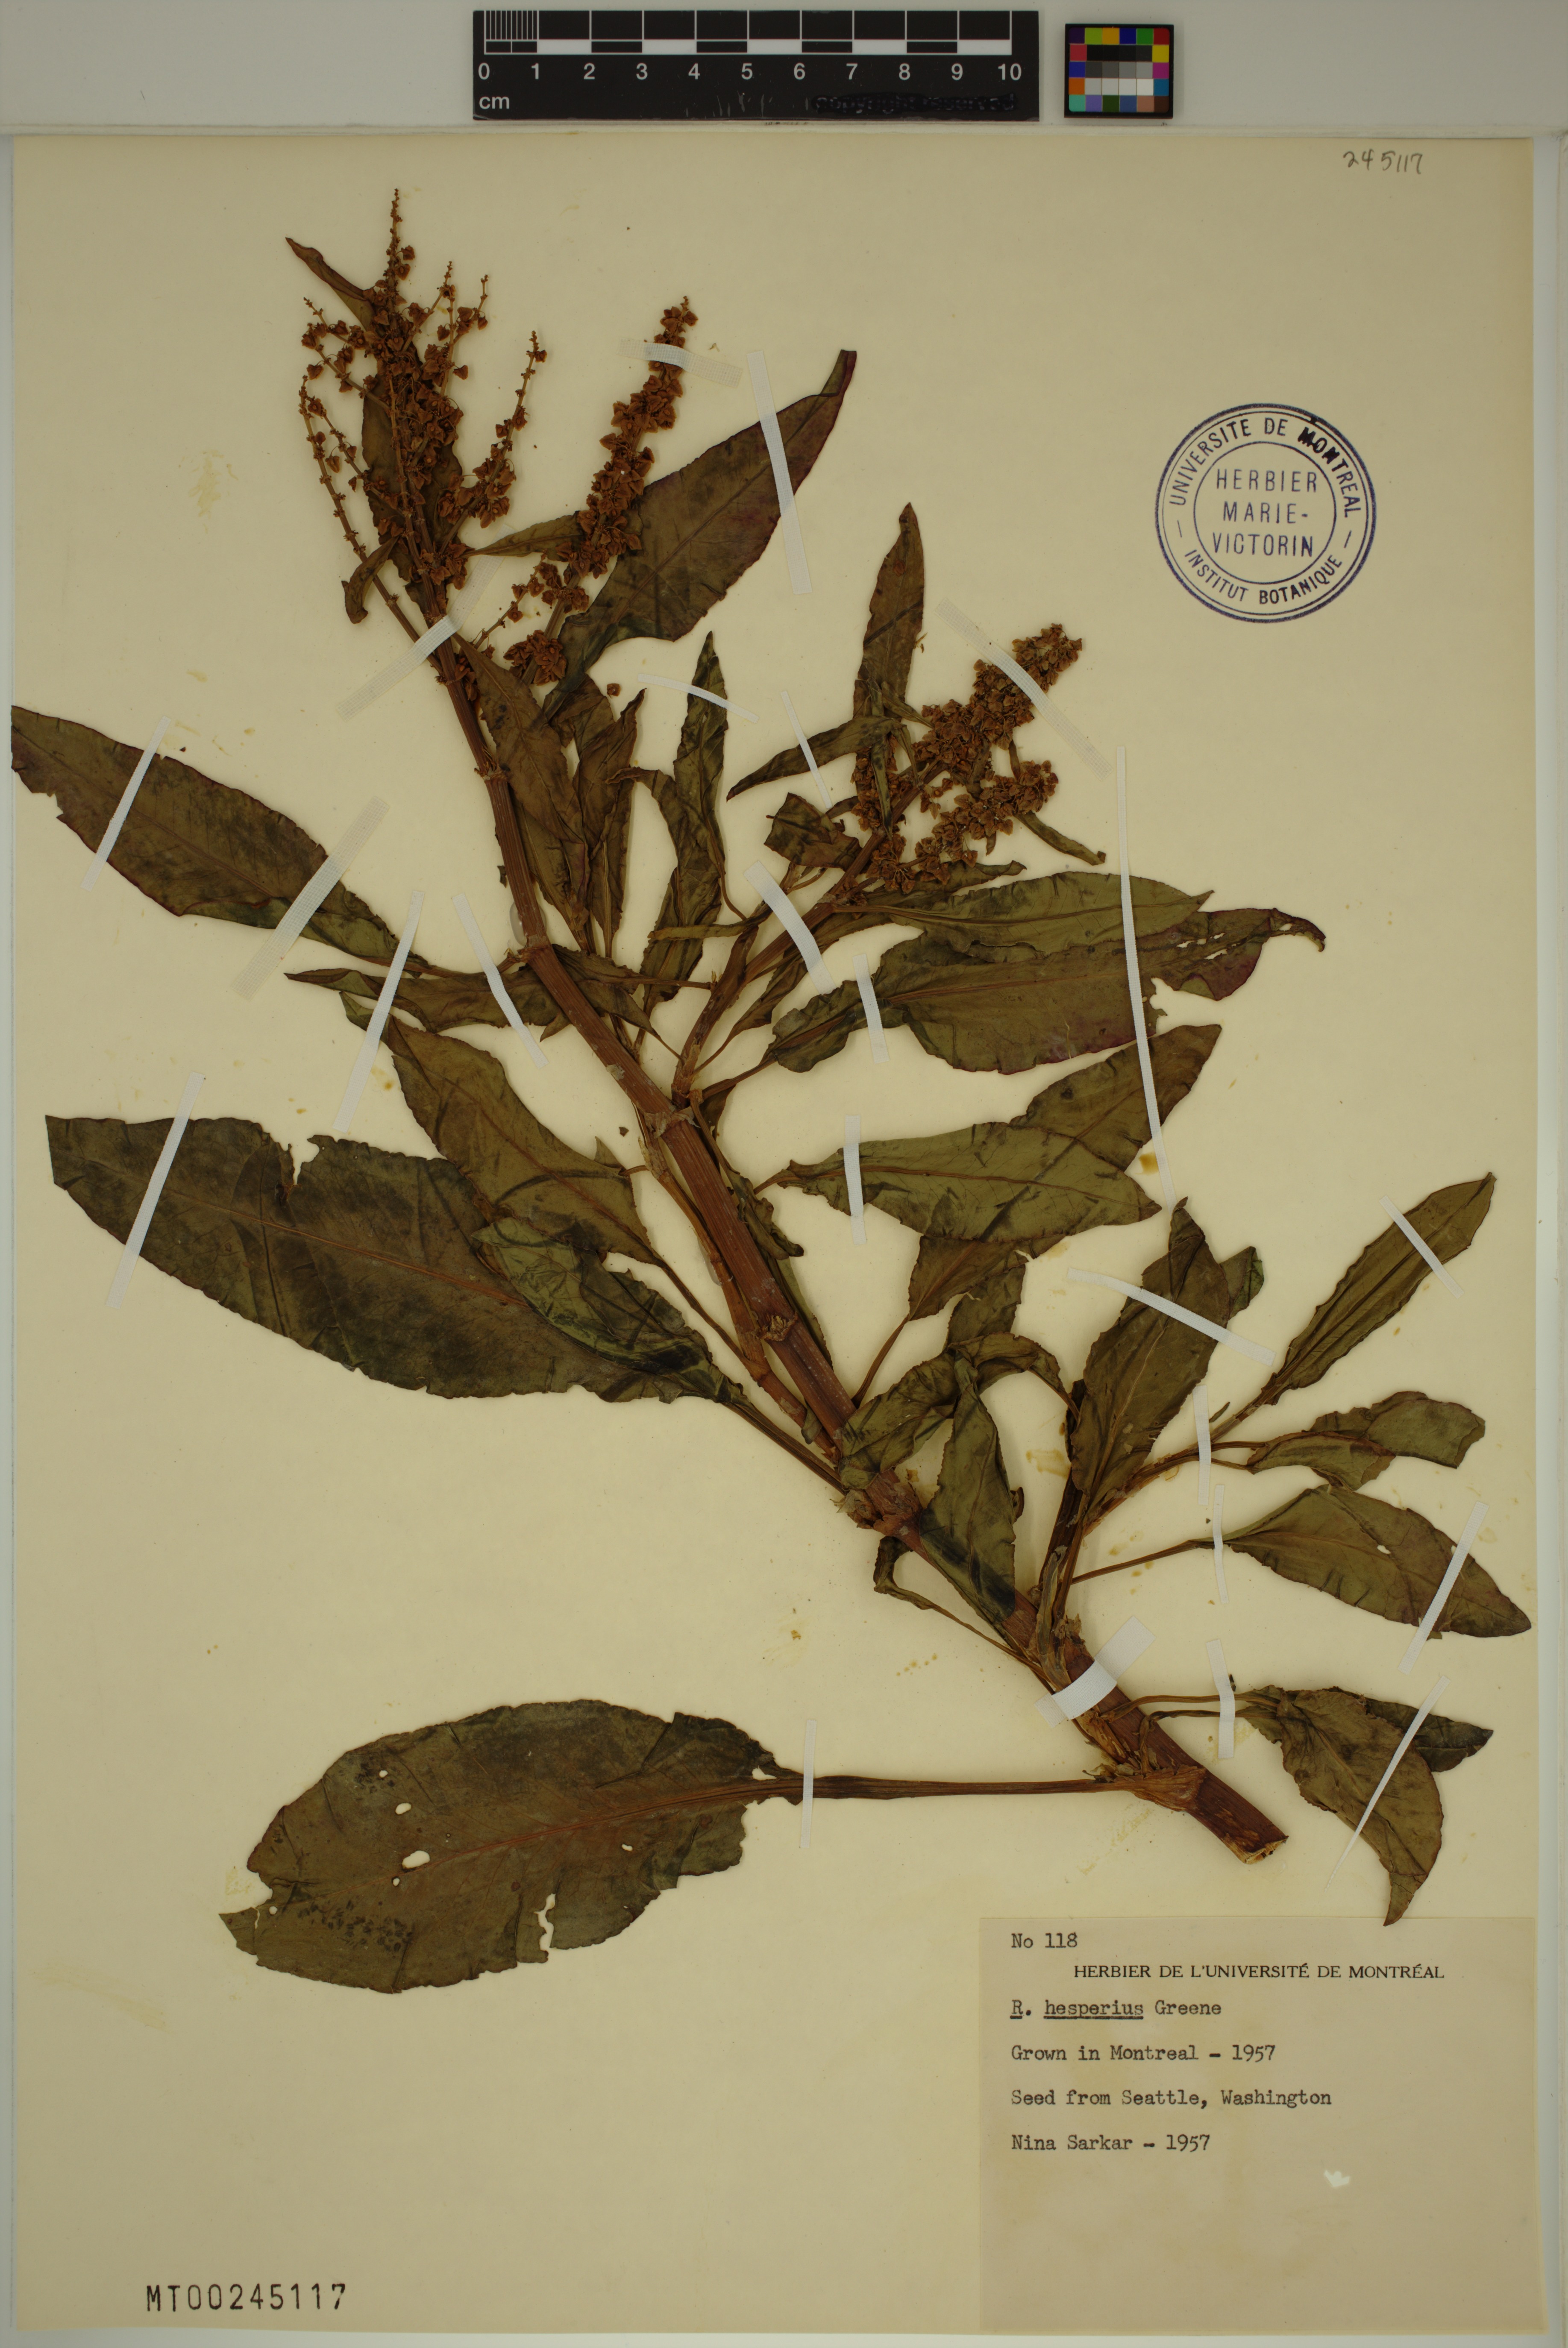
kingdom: Plantae
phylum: Tracheophyta
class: Magnoliopsida
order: Caryophyllales
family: Polygonaceae
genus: Rumex
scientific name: Rumex salicifolius
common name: Willow-leaved dock
